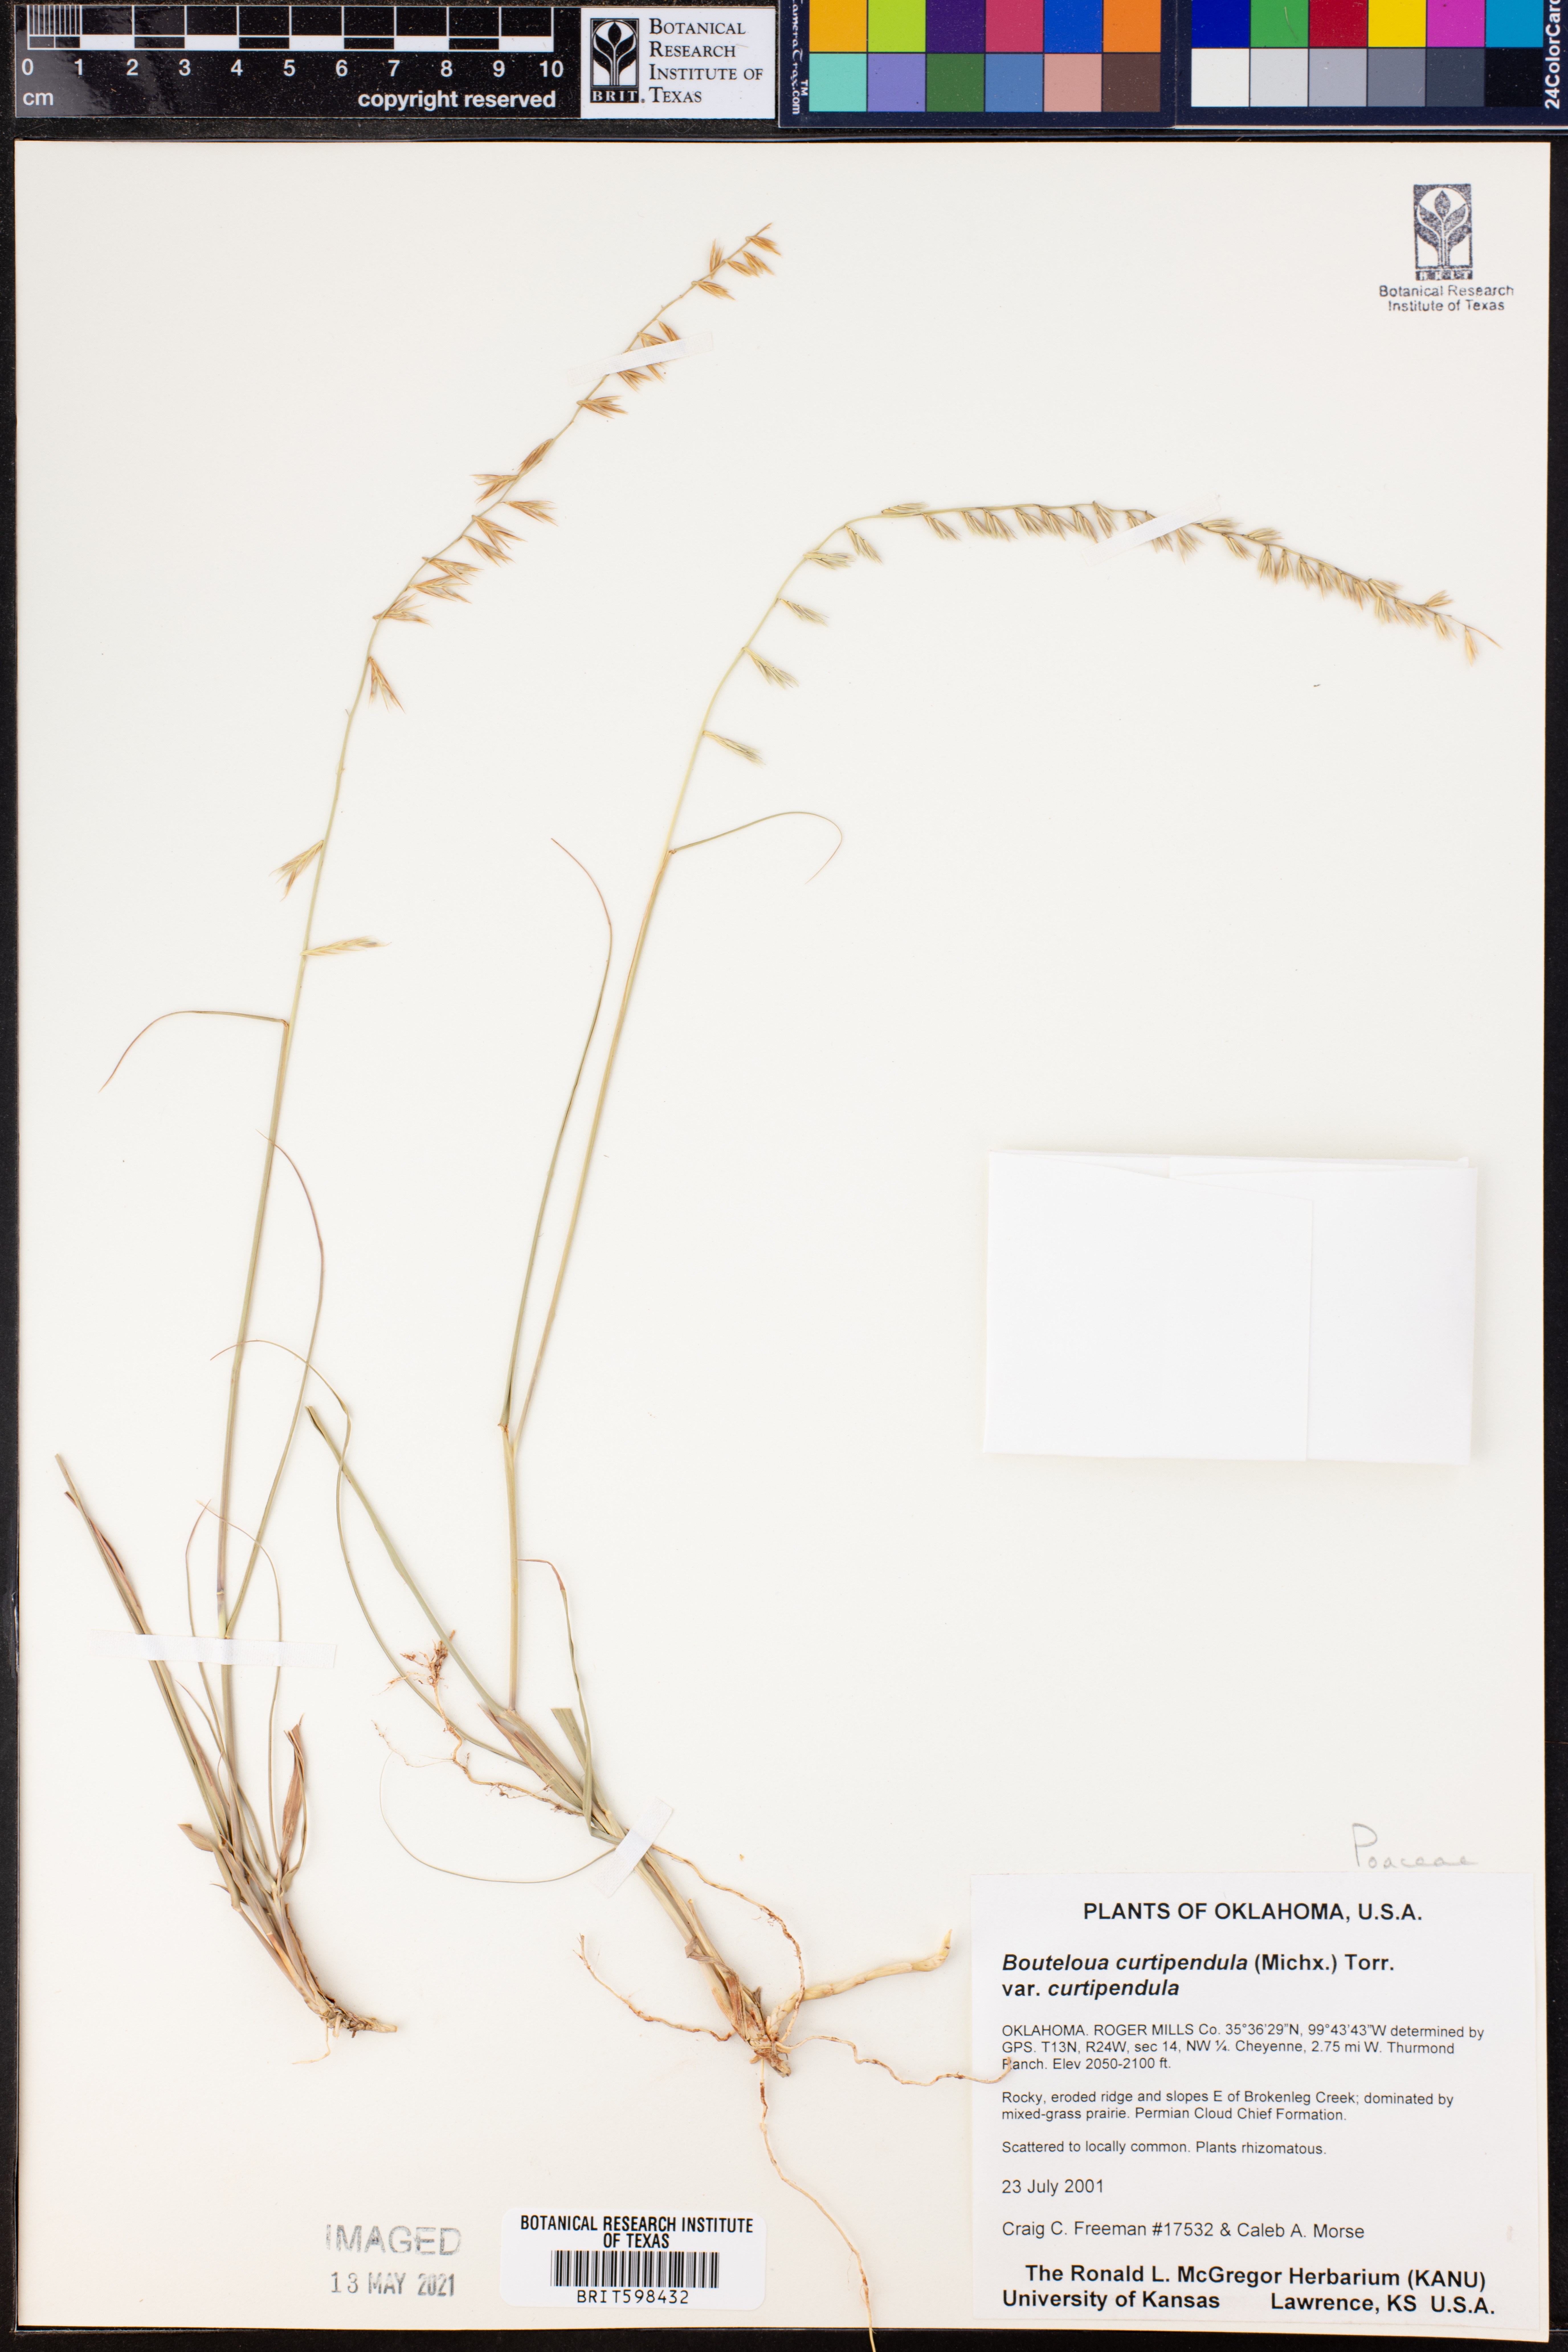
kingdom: Plantae
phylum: Tracheophyta
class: Liliopsida
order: Poales
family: Poaceae
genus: Bouteloua
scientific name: Bouteloua curtipendula
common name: Side-oats grama
